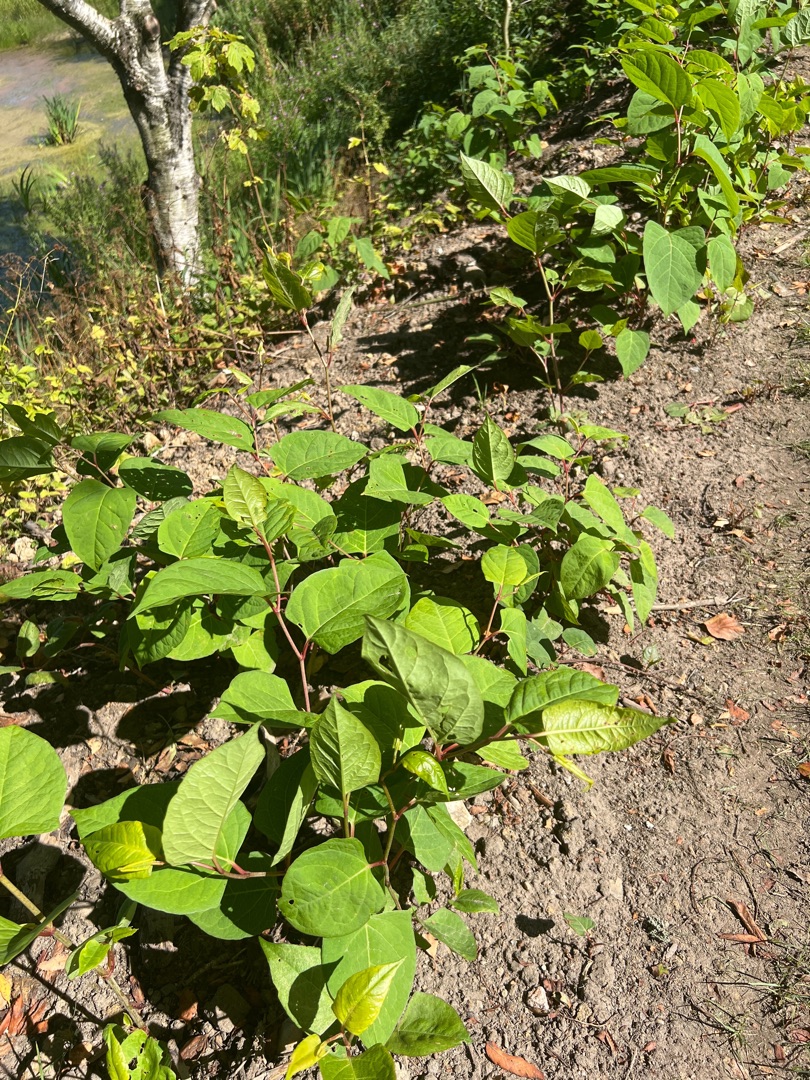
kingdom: Plantae
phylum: Tracheophyta
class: Magnoliopsida
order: Caryophyllales
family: Polygonaceae
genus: Reynoutria
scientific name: Reynoutria bohemica
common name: Hybrid-pileurt
